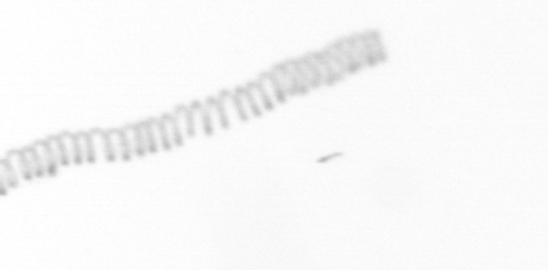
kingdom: Chromista
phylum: Ochrophyta
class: Bacillariophyceae
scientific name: Bacillariophyceae
